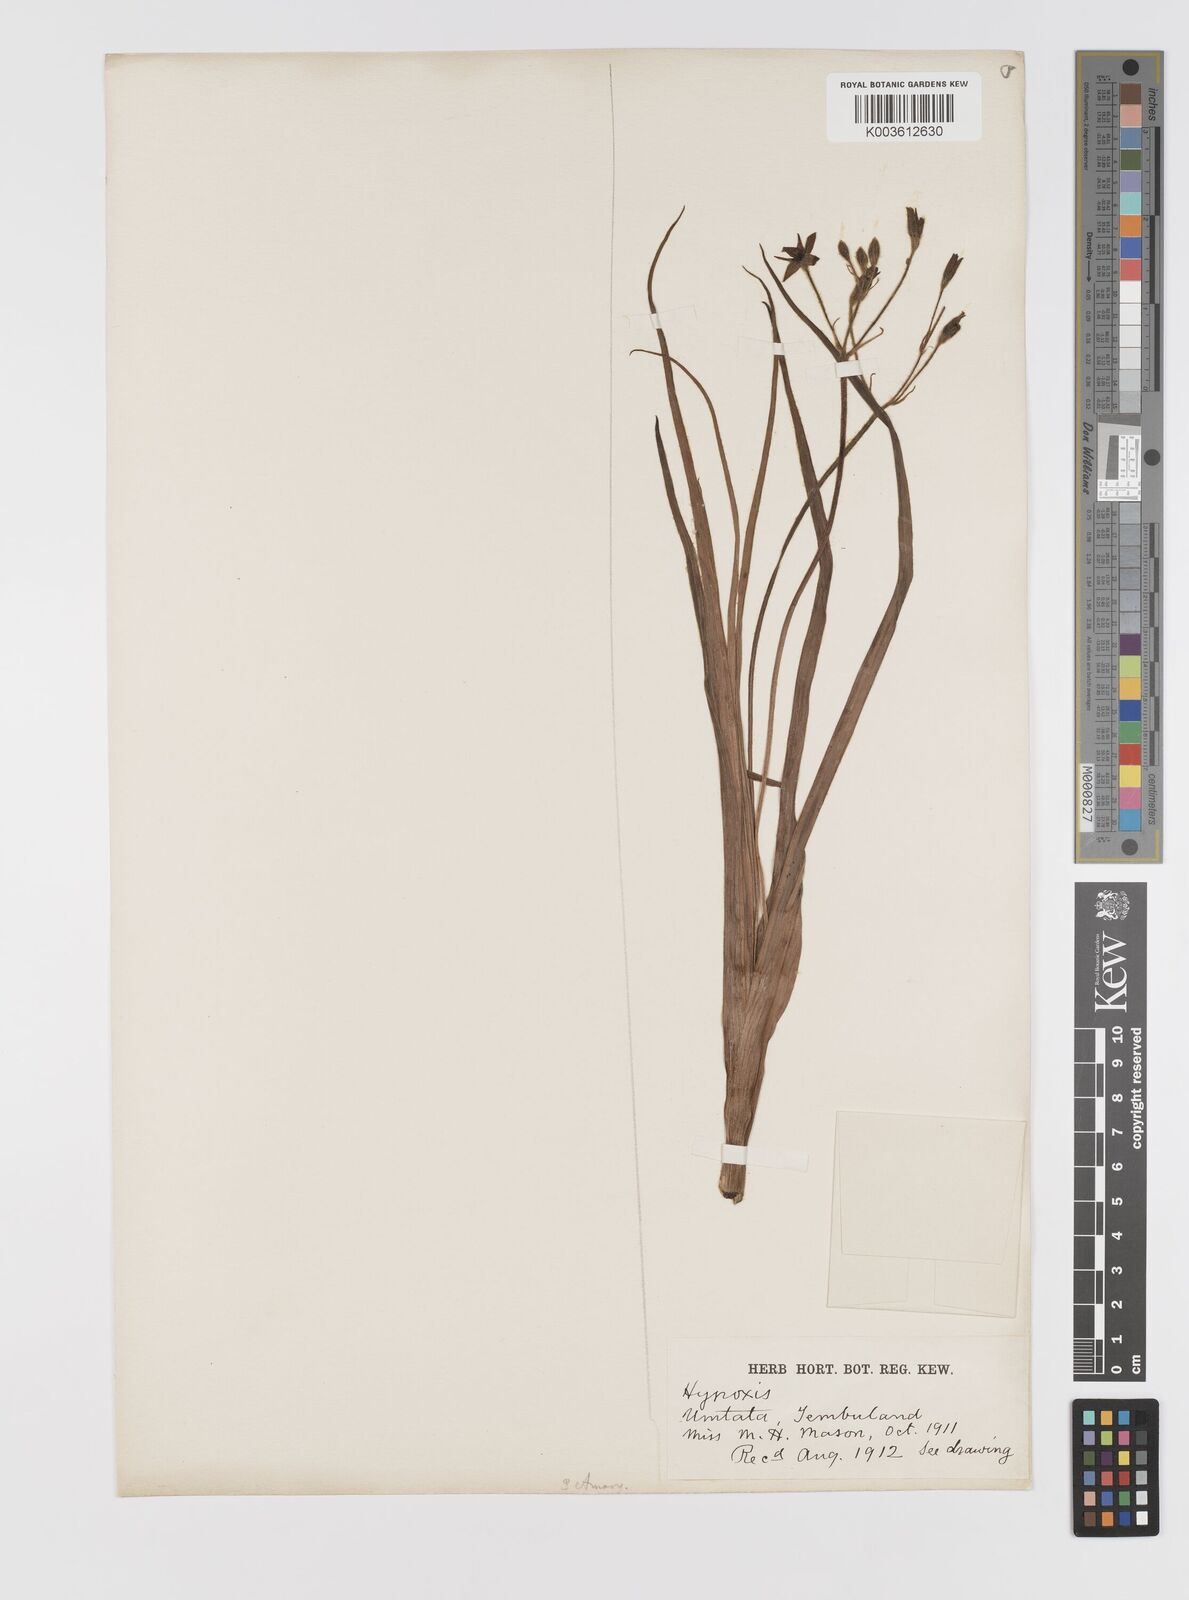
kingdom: Plantae
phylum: Tracheophyta
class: Liliopsida
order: Asparagales
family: Hypoxidaceae
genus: Hypoxis
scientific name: Hypoxis angustifolia
